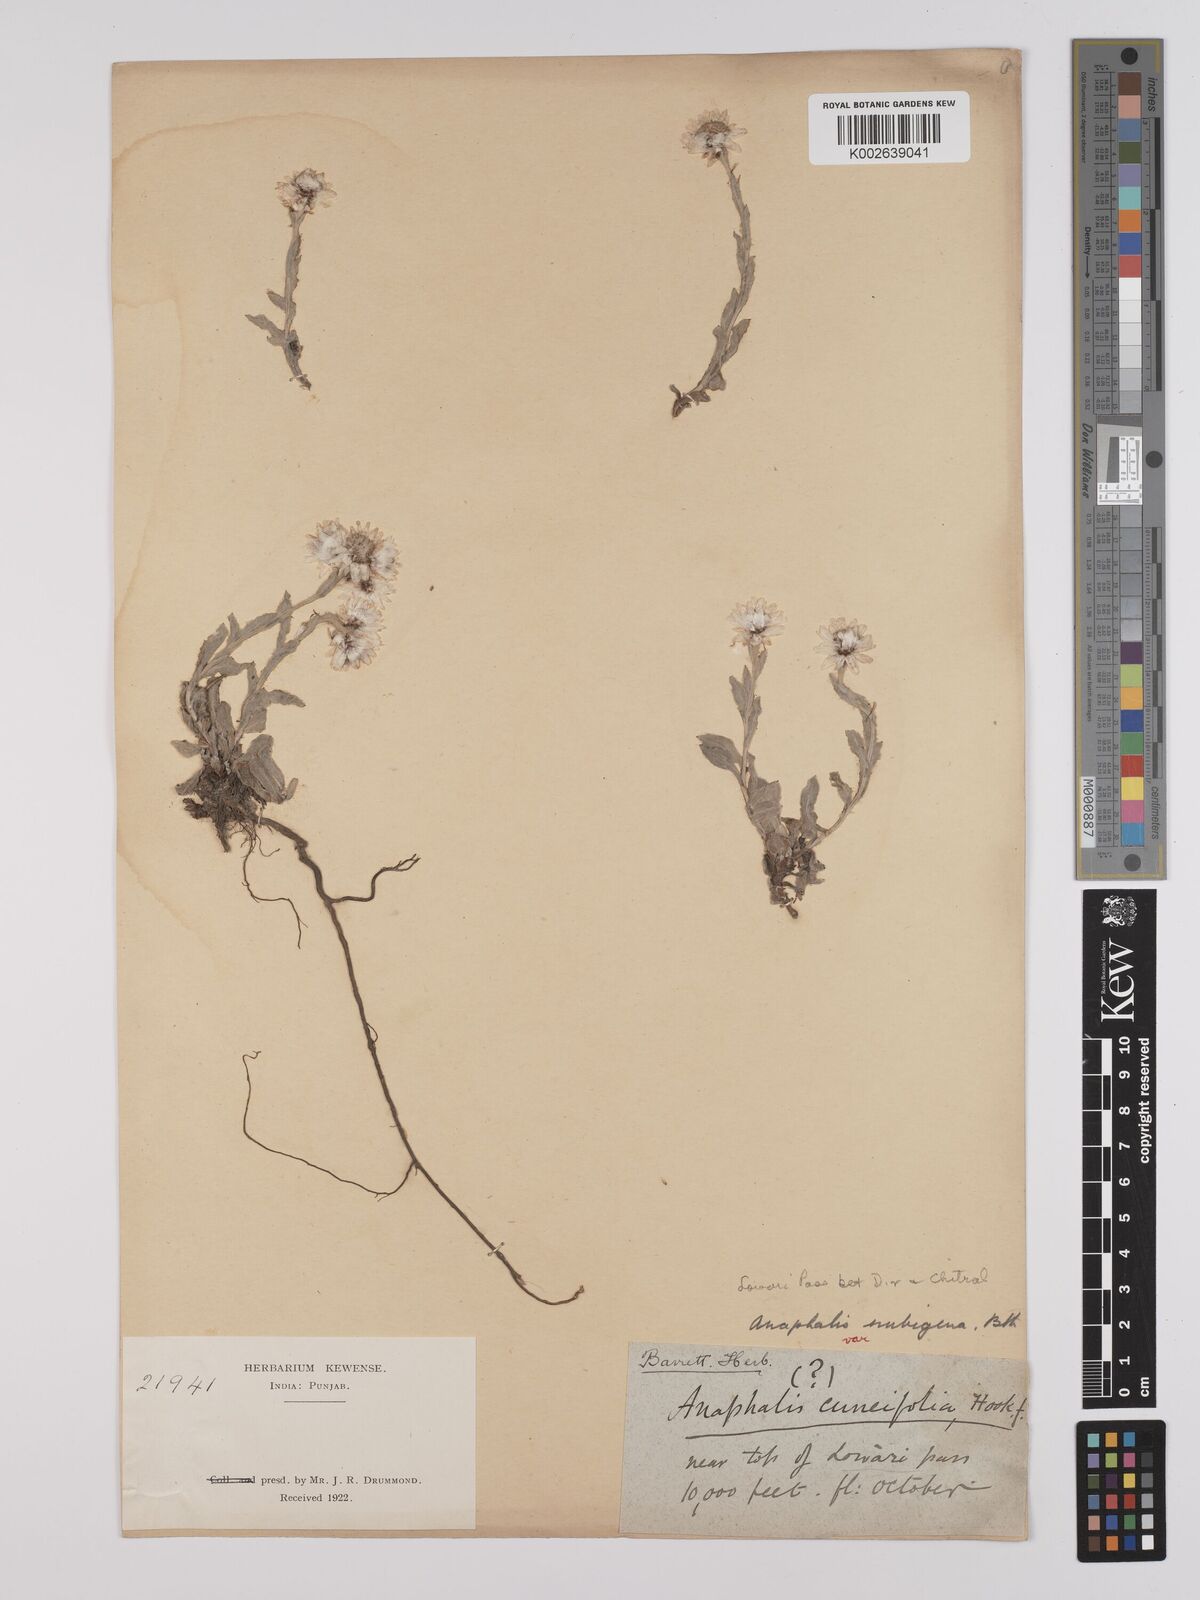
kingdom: Plantae
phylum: Tracheophyta
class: Magnoliopsida
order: Asterales
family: Asteraceae
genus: Anaphalioides
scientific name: Anaphalioides trinervis
